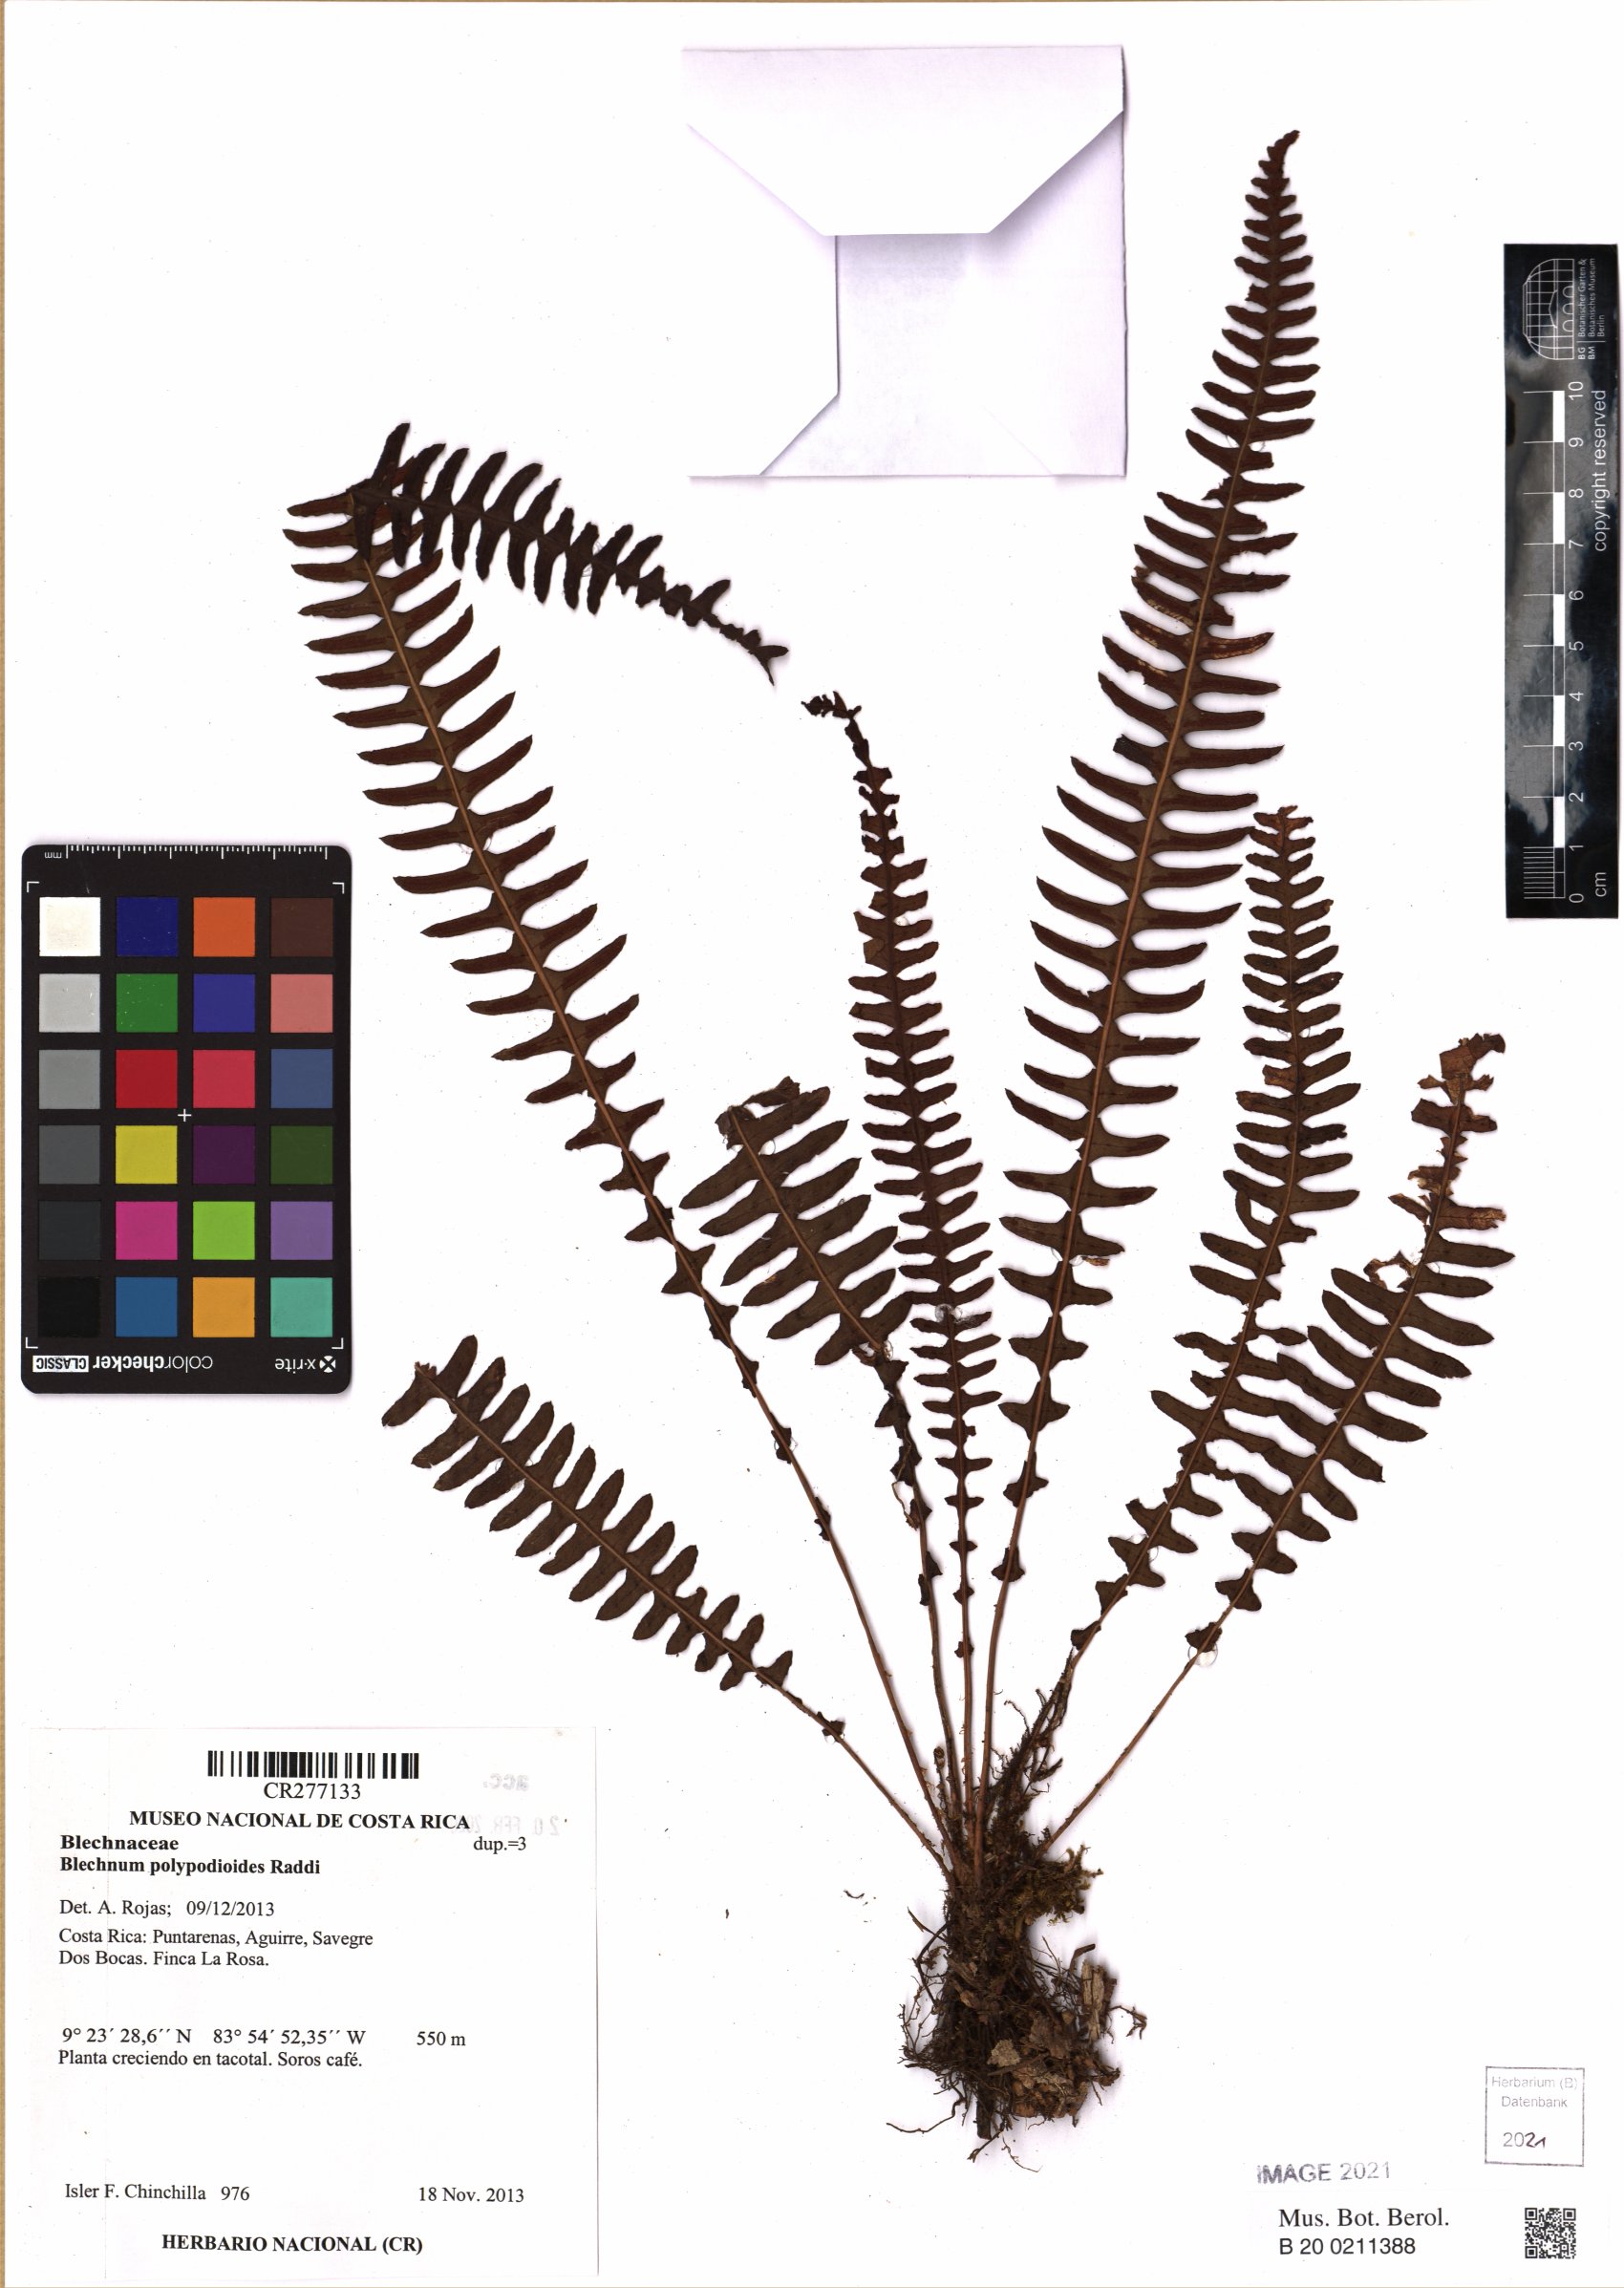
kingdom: Plantae
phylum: Tracheophyta
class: Polypodiopsida
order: Polypodiales
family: Blechnaceae
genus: Blechnum
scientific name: Blechnum polypodioides
